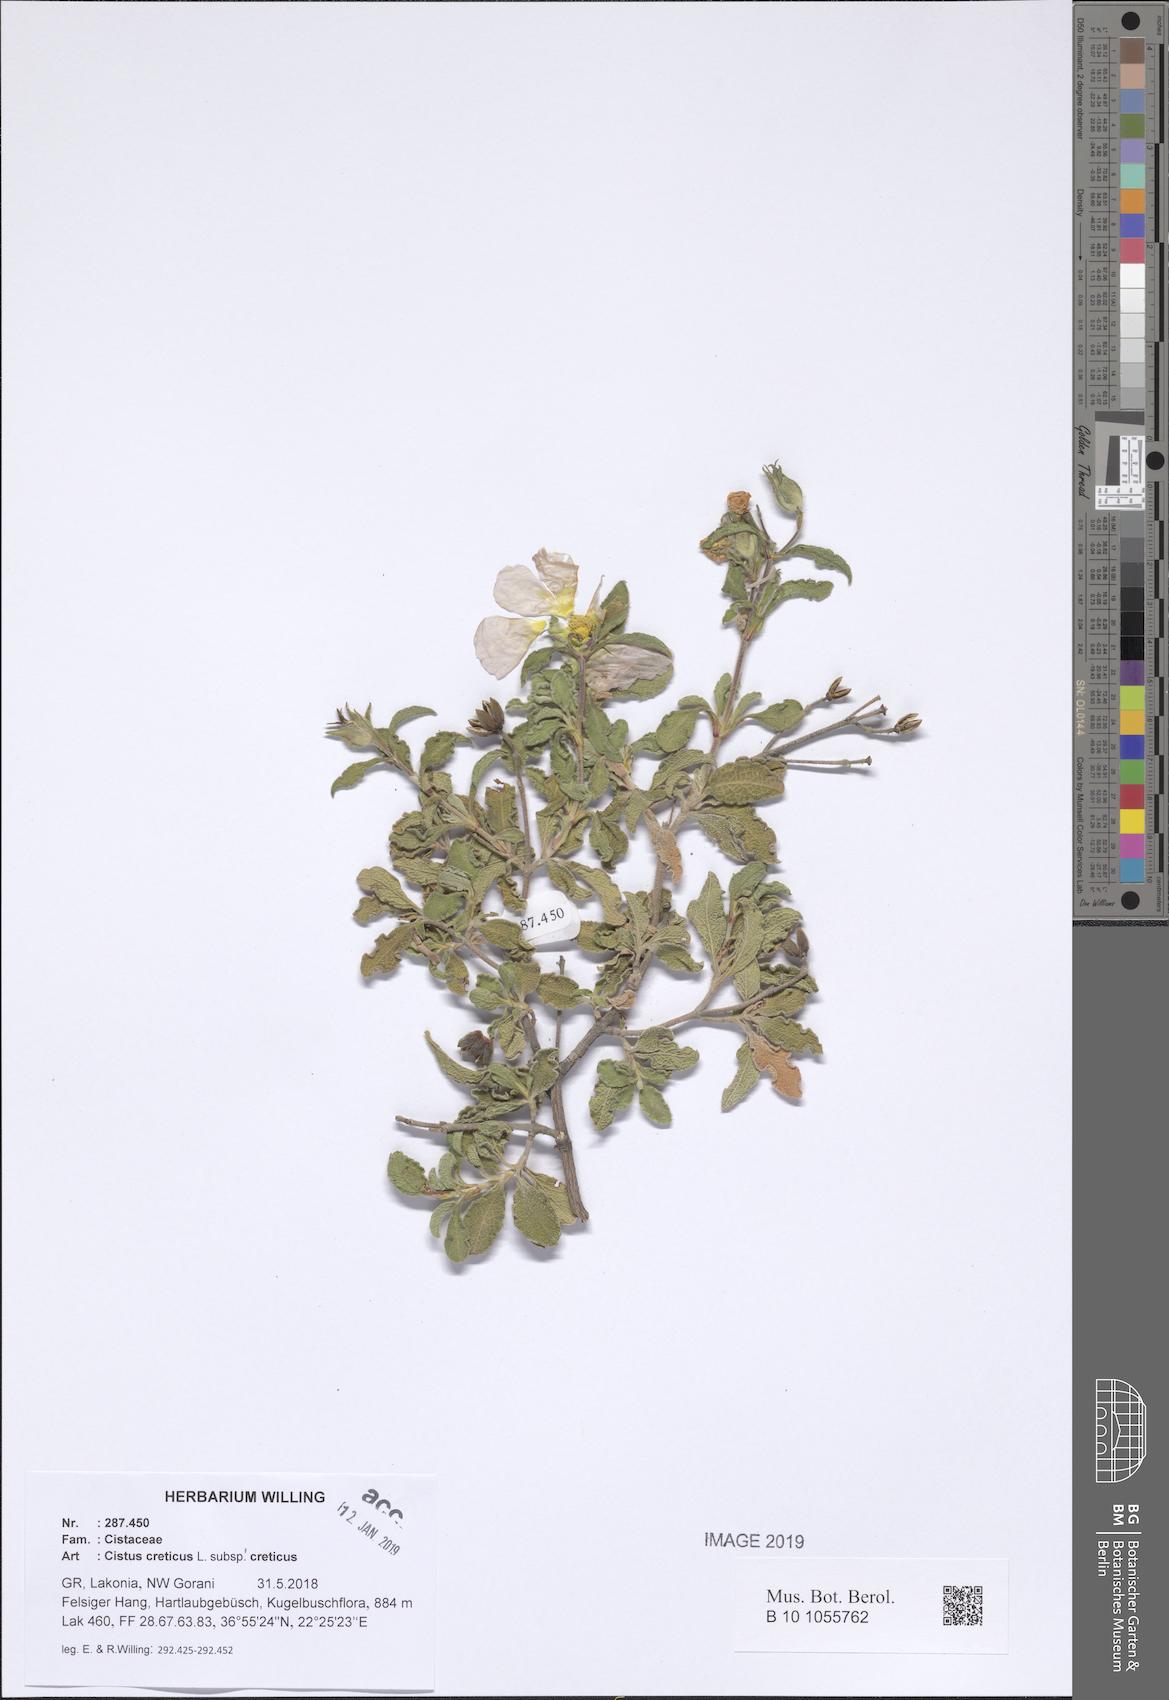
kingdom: Plantae
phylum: Tracheophyta
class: Magnoliopsida
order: Malvales
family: Cistaceae
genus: Cistus
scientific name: Cistus creticus
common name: Cretan rockrose
